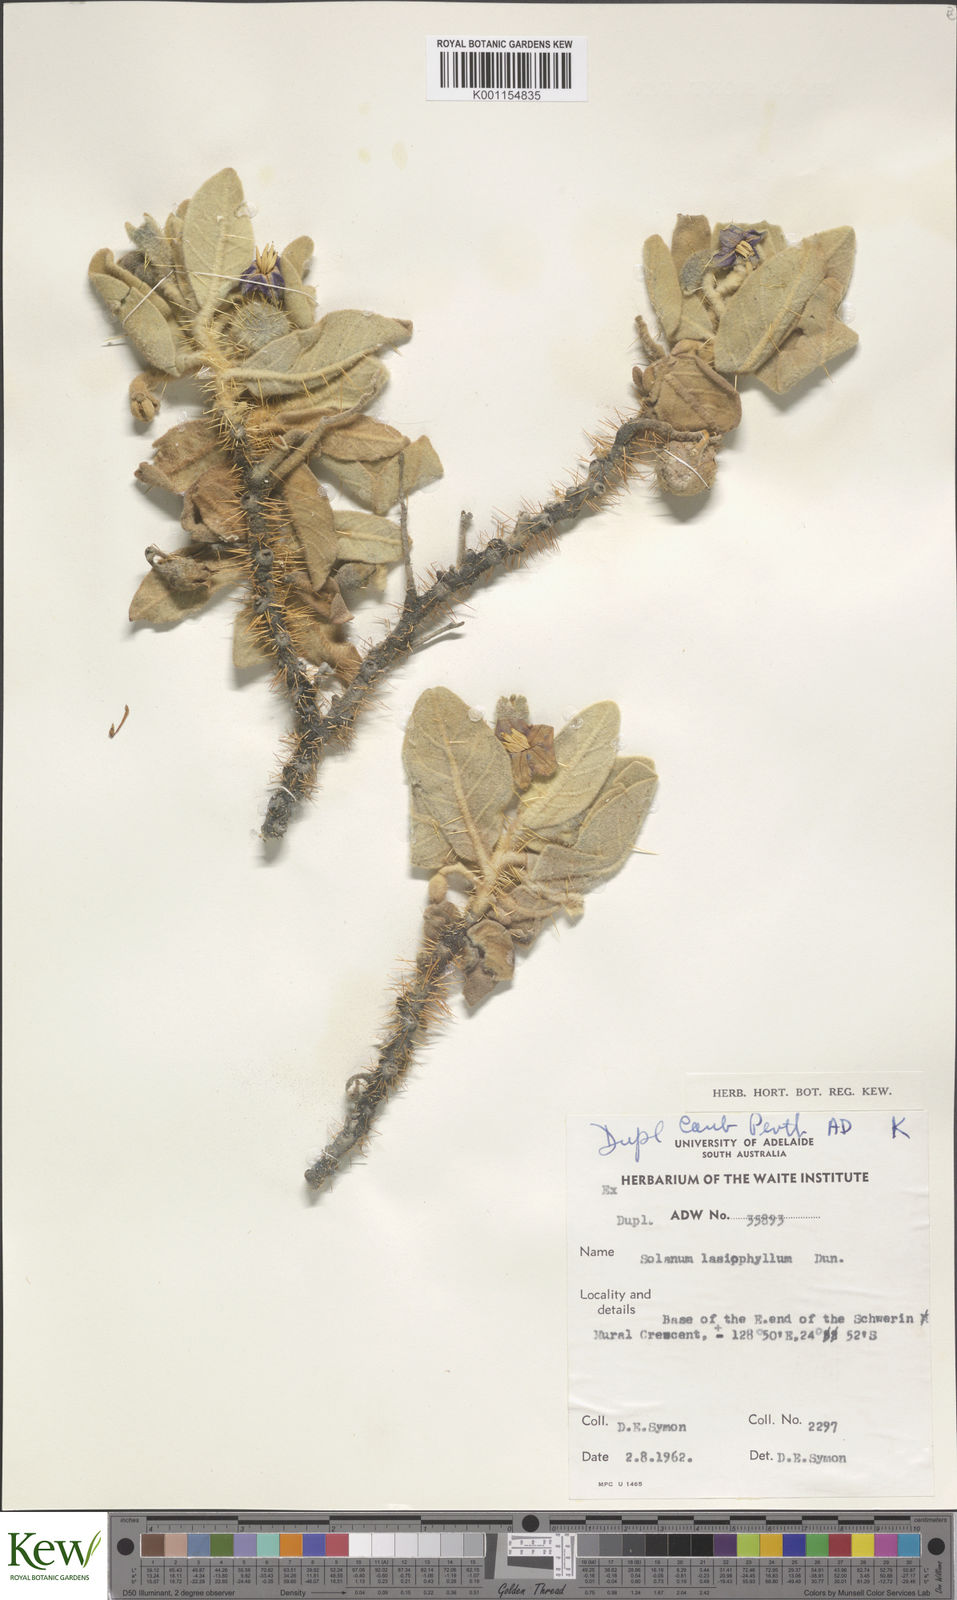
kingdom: Plantae
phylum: Tracheophyta
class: Magnoliopsida
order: Solanales
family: Solanaceae
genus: Solanum
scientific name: Solanum lasiophyllum
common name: Flannelbush
